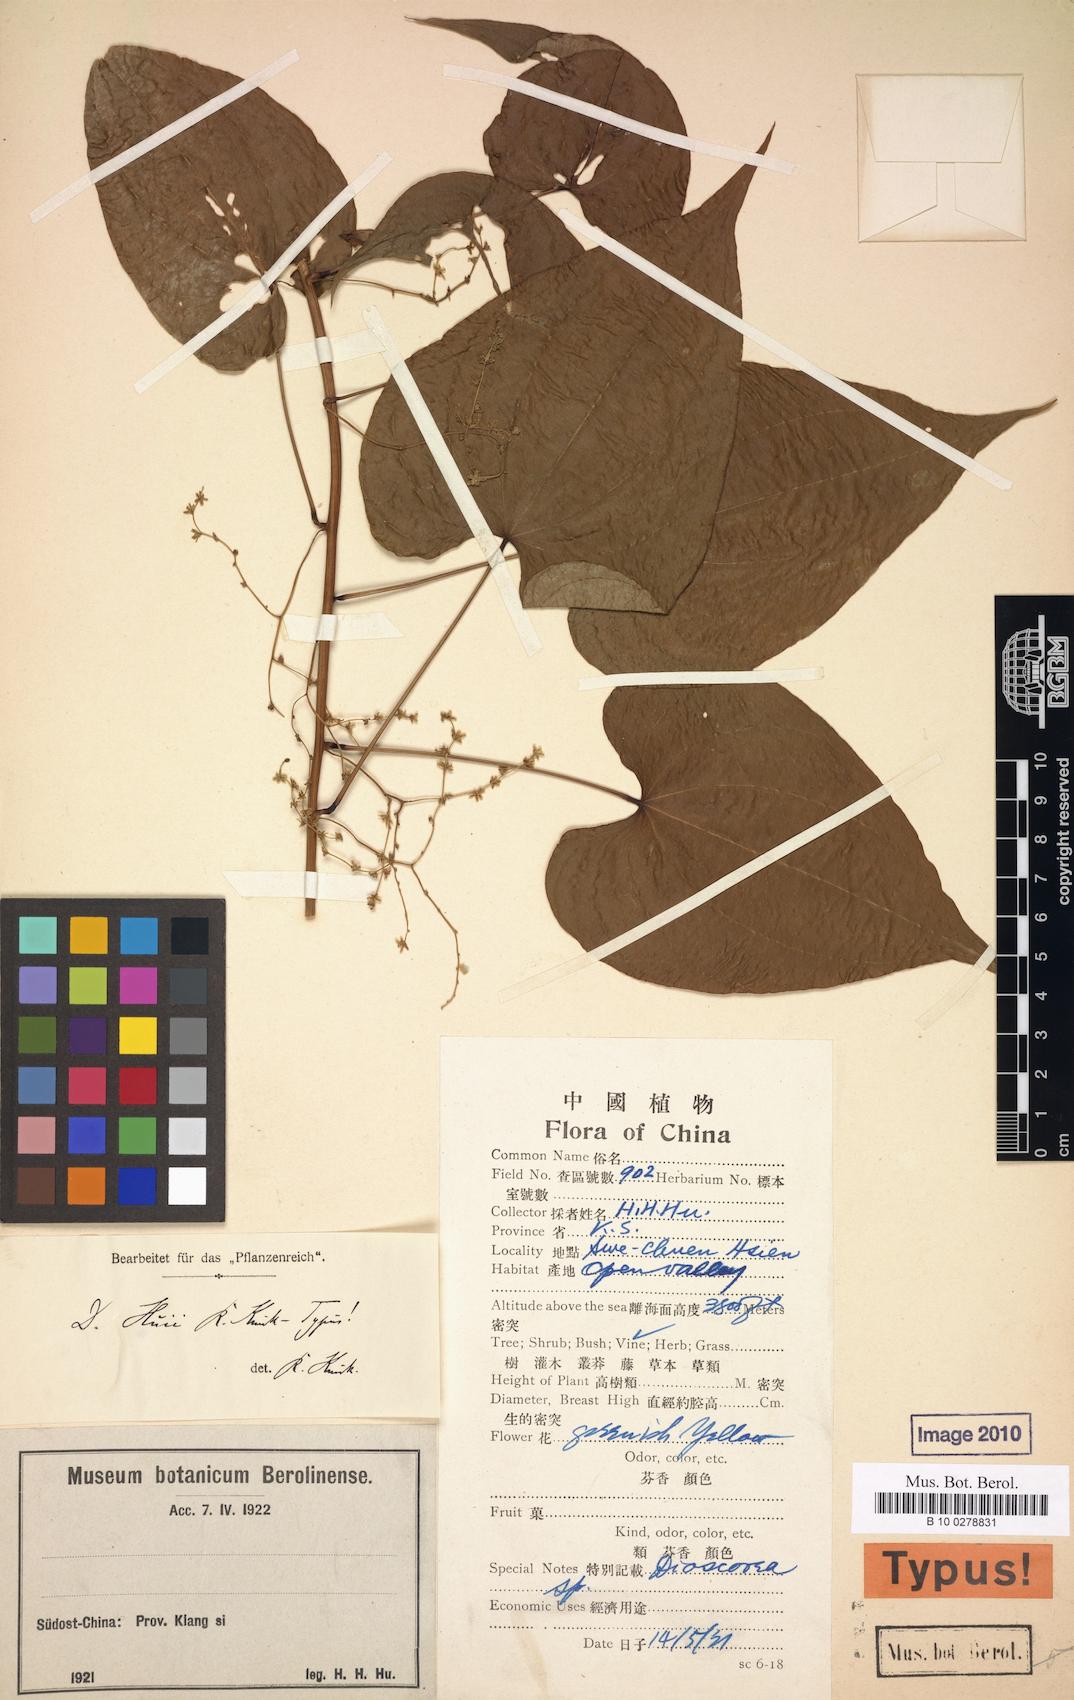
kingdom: Plantae
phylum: Tracheophyta
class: Liliopsida
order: Dioscoreales
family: Dioscoreaceae
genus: Dioscorea
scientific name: Dioscorea collettii
